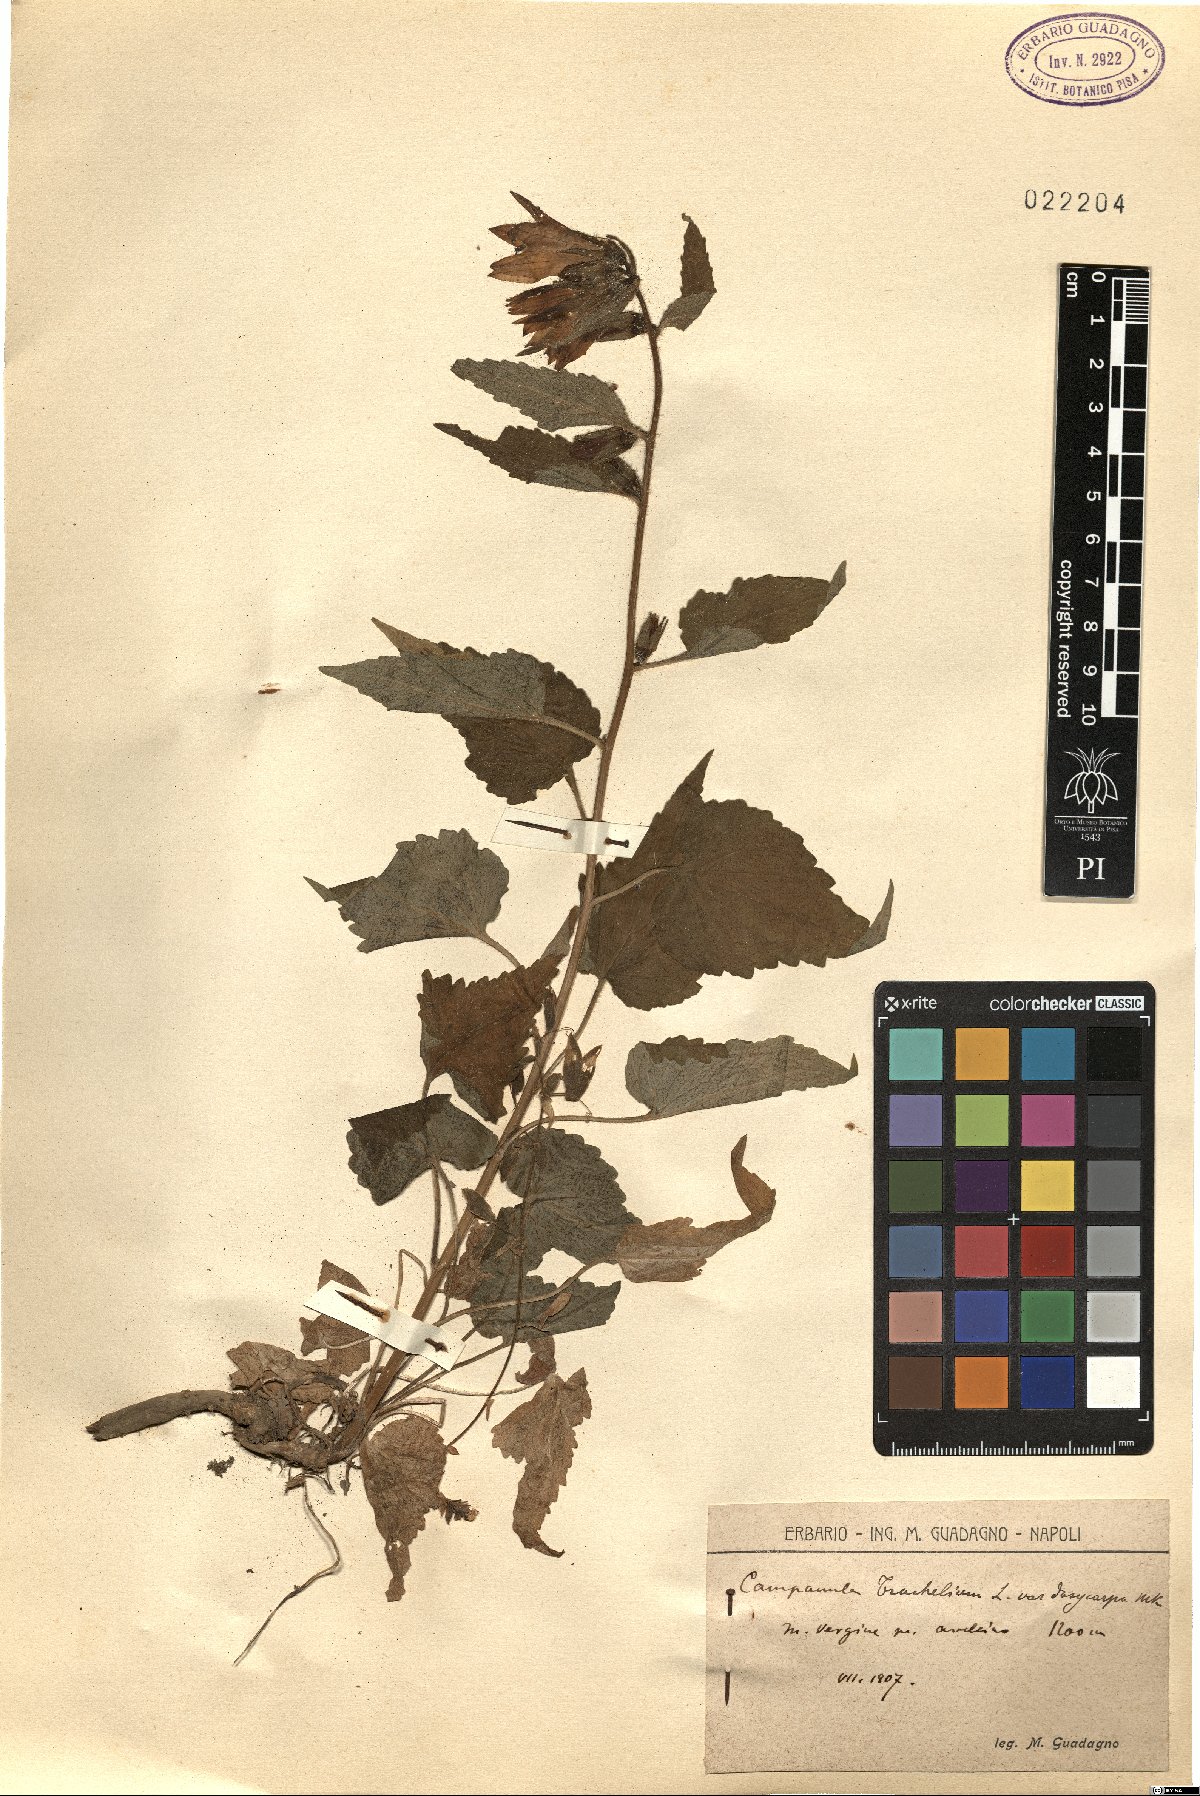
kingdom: Plantae
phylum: Tracheophyta
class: Magnoliopsida
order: Asterales
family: Campanulaceae
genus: Campanula
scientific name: Campanula trachelium
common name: Nettle-leaved bellflower
